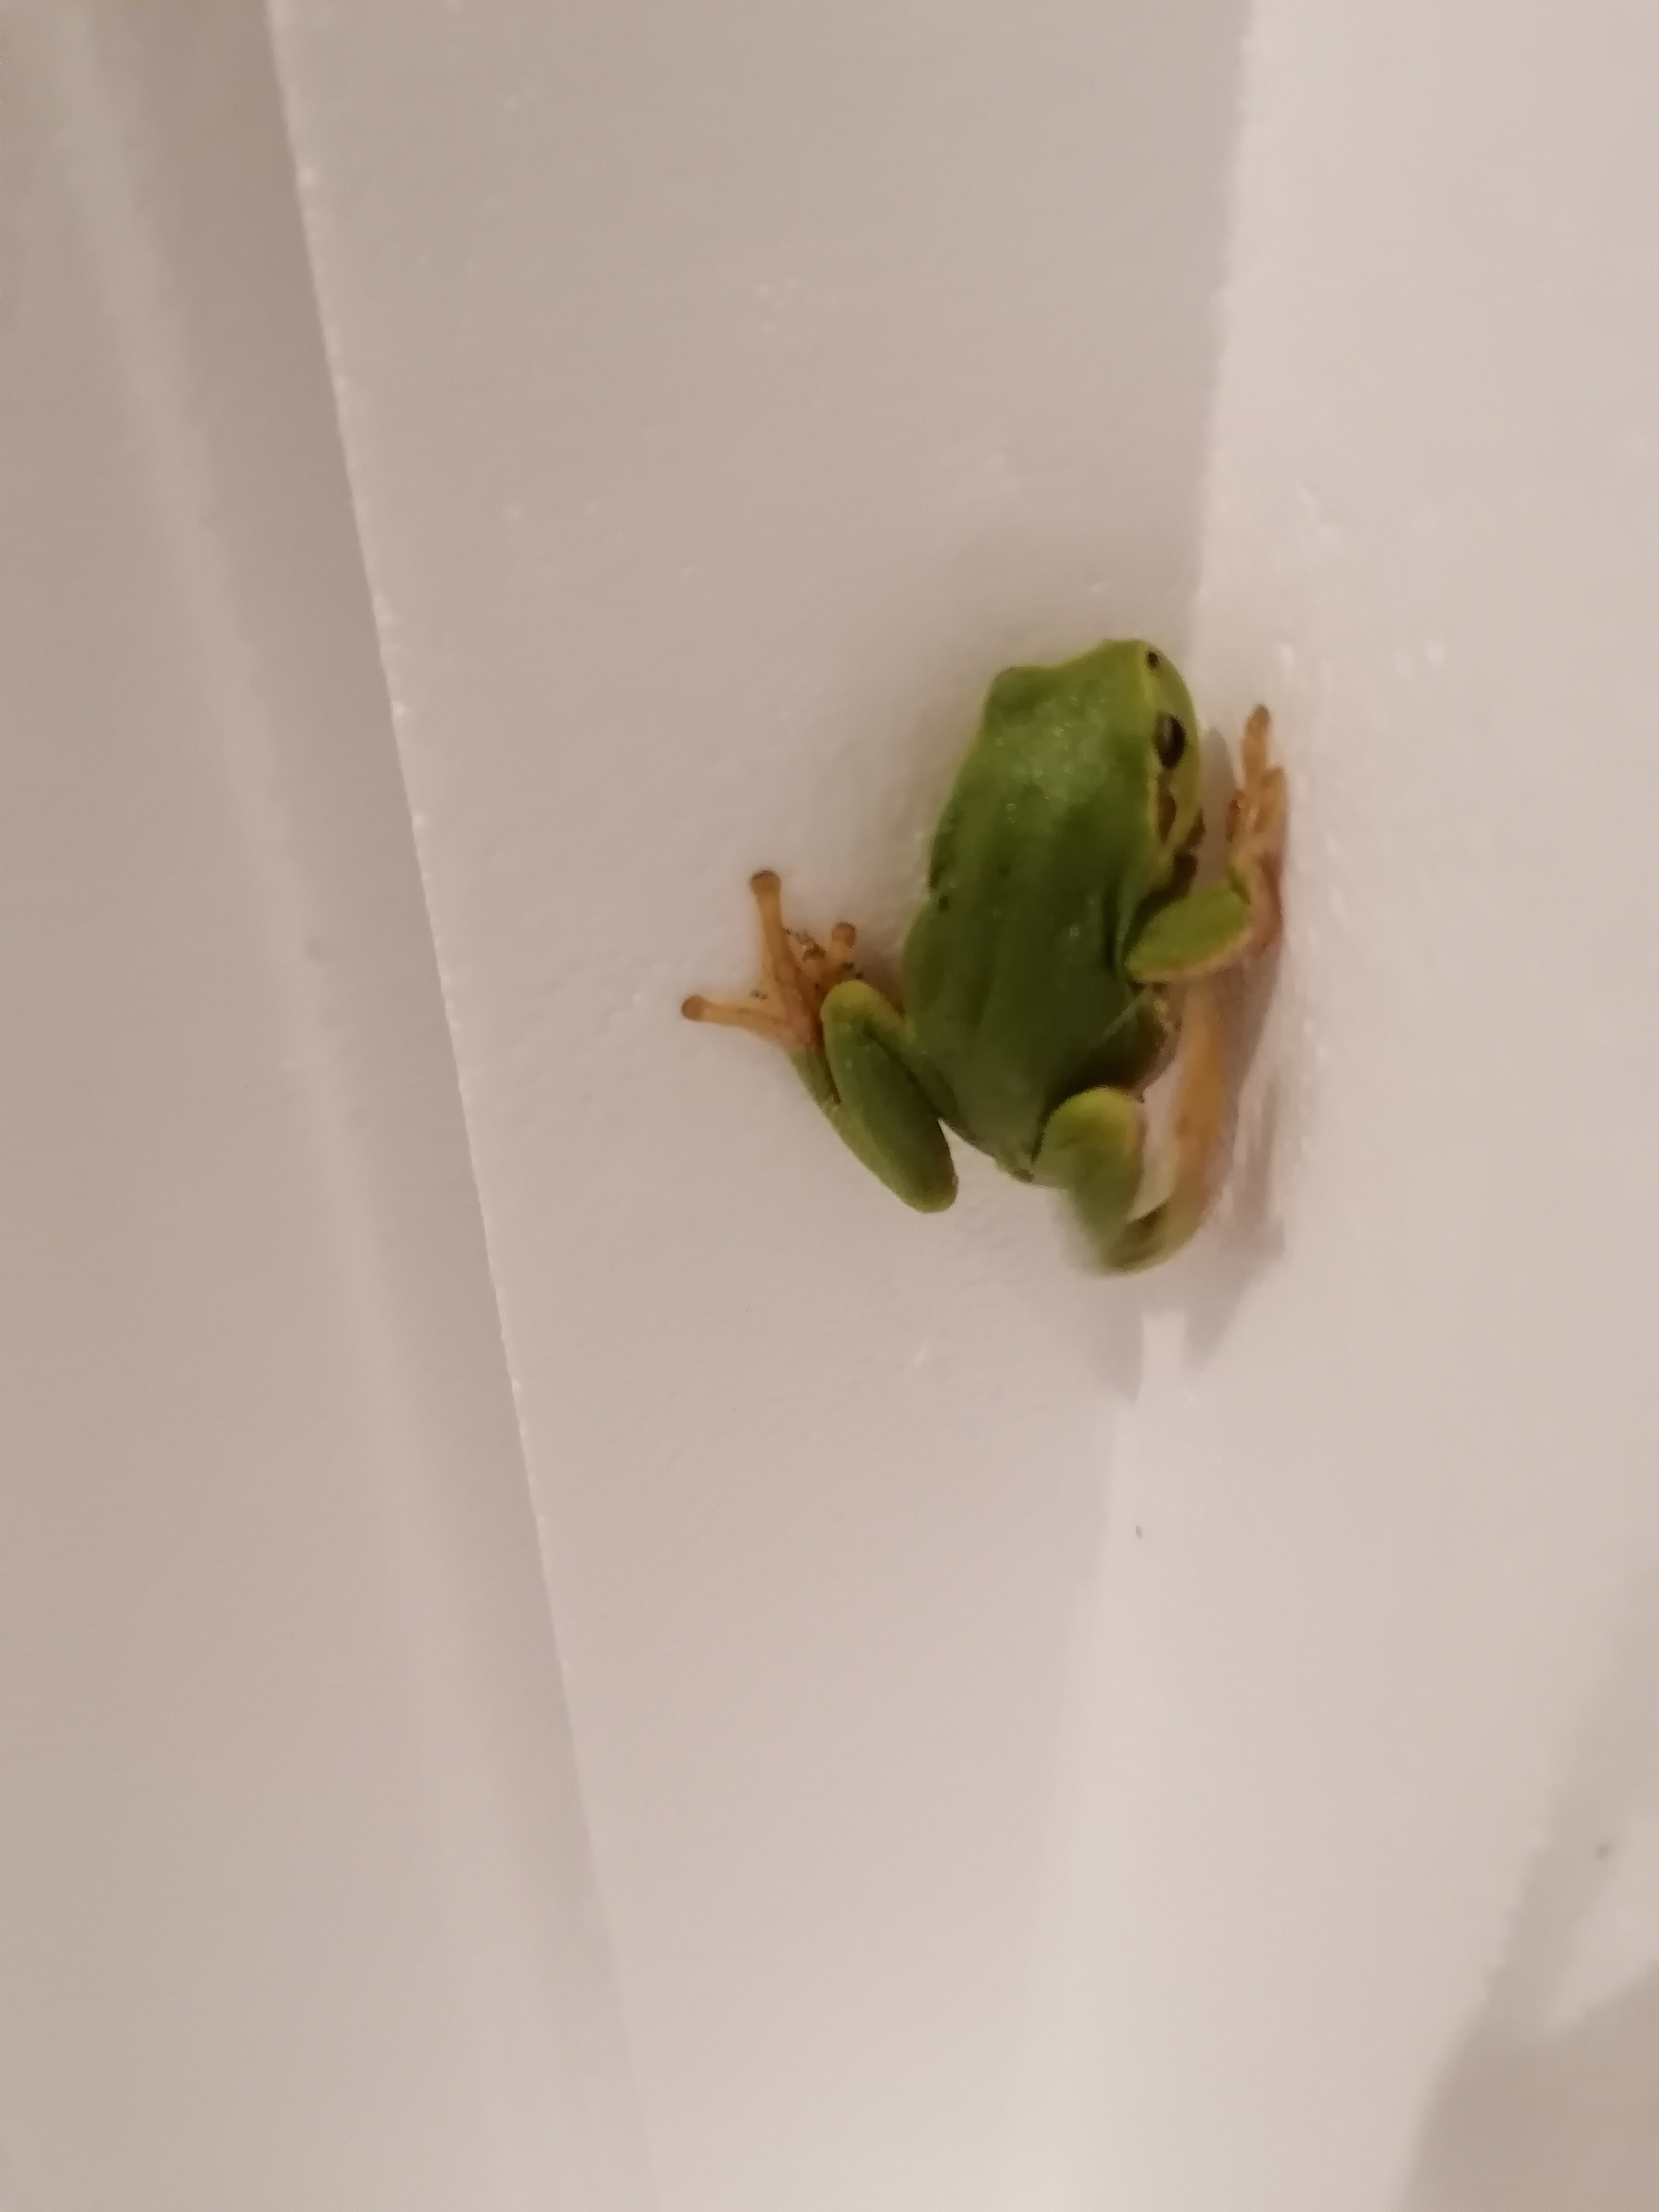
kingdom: Animalia
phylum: Chordata
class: Amphibia
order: Anura
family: Hylidae
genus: Hyla
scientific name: Hyla arborea
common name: Løvfrø
